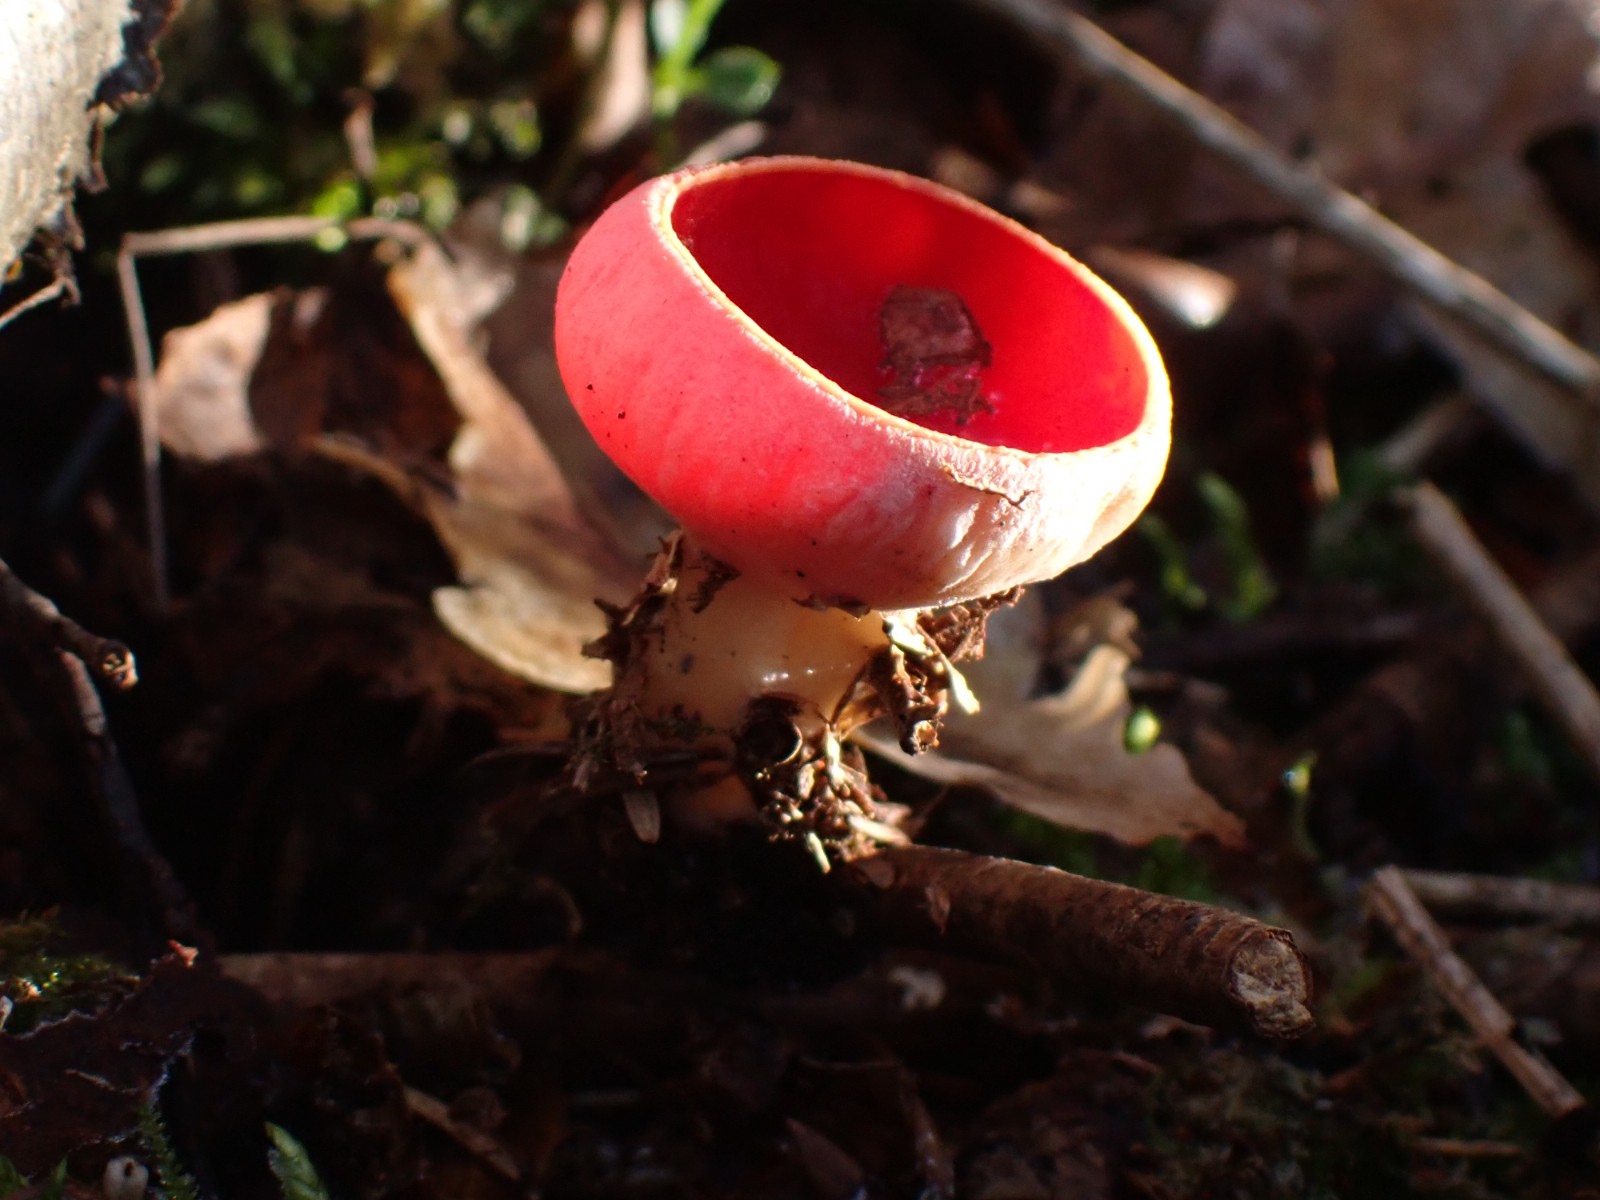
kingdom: Fungi
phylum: Ascomycota
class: Pezizomycetes
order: Pezizales
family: Sarcoscyphaceae
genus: Sarcoscypha
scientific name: Sarcoscypha austriaca
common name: krølhåret pragtbæger
